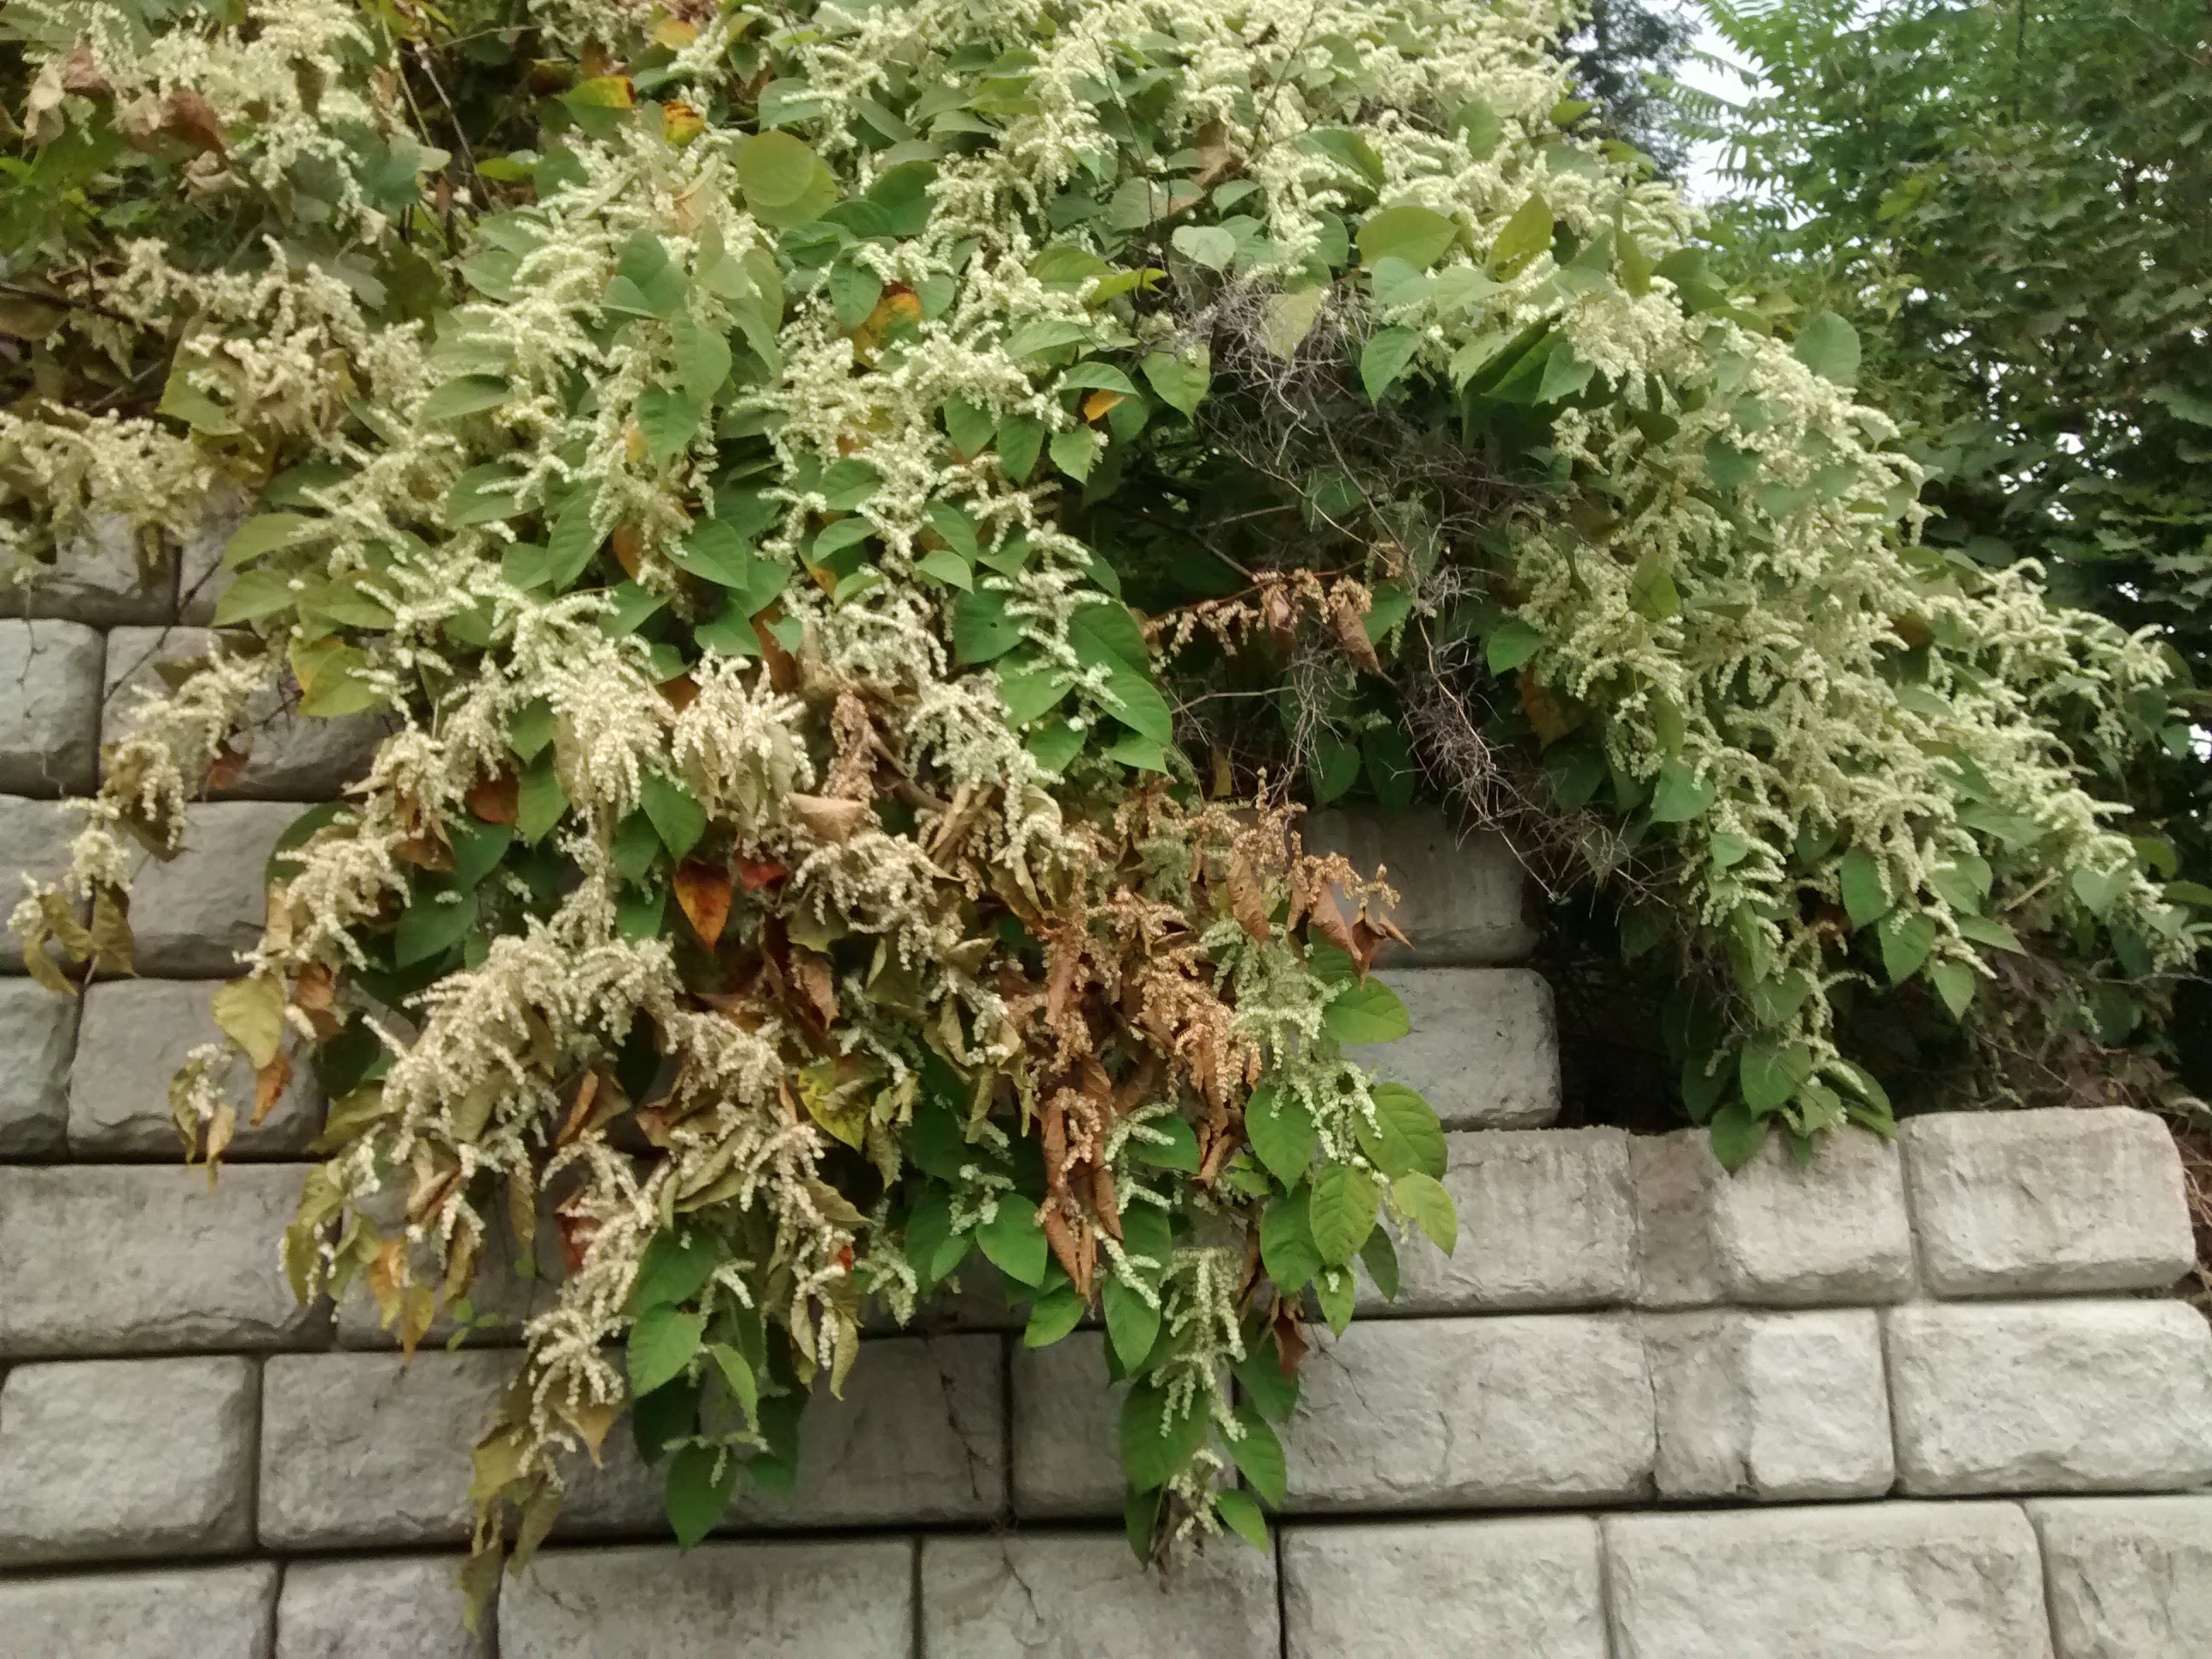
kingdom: Plantae
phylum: Tracheophyta
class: Magnoliopsida
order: Caryophyllales
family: Polygonaceae
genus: Reynoutria
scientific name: Reynoutria japonica
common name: Japanese Knotweed
